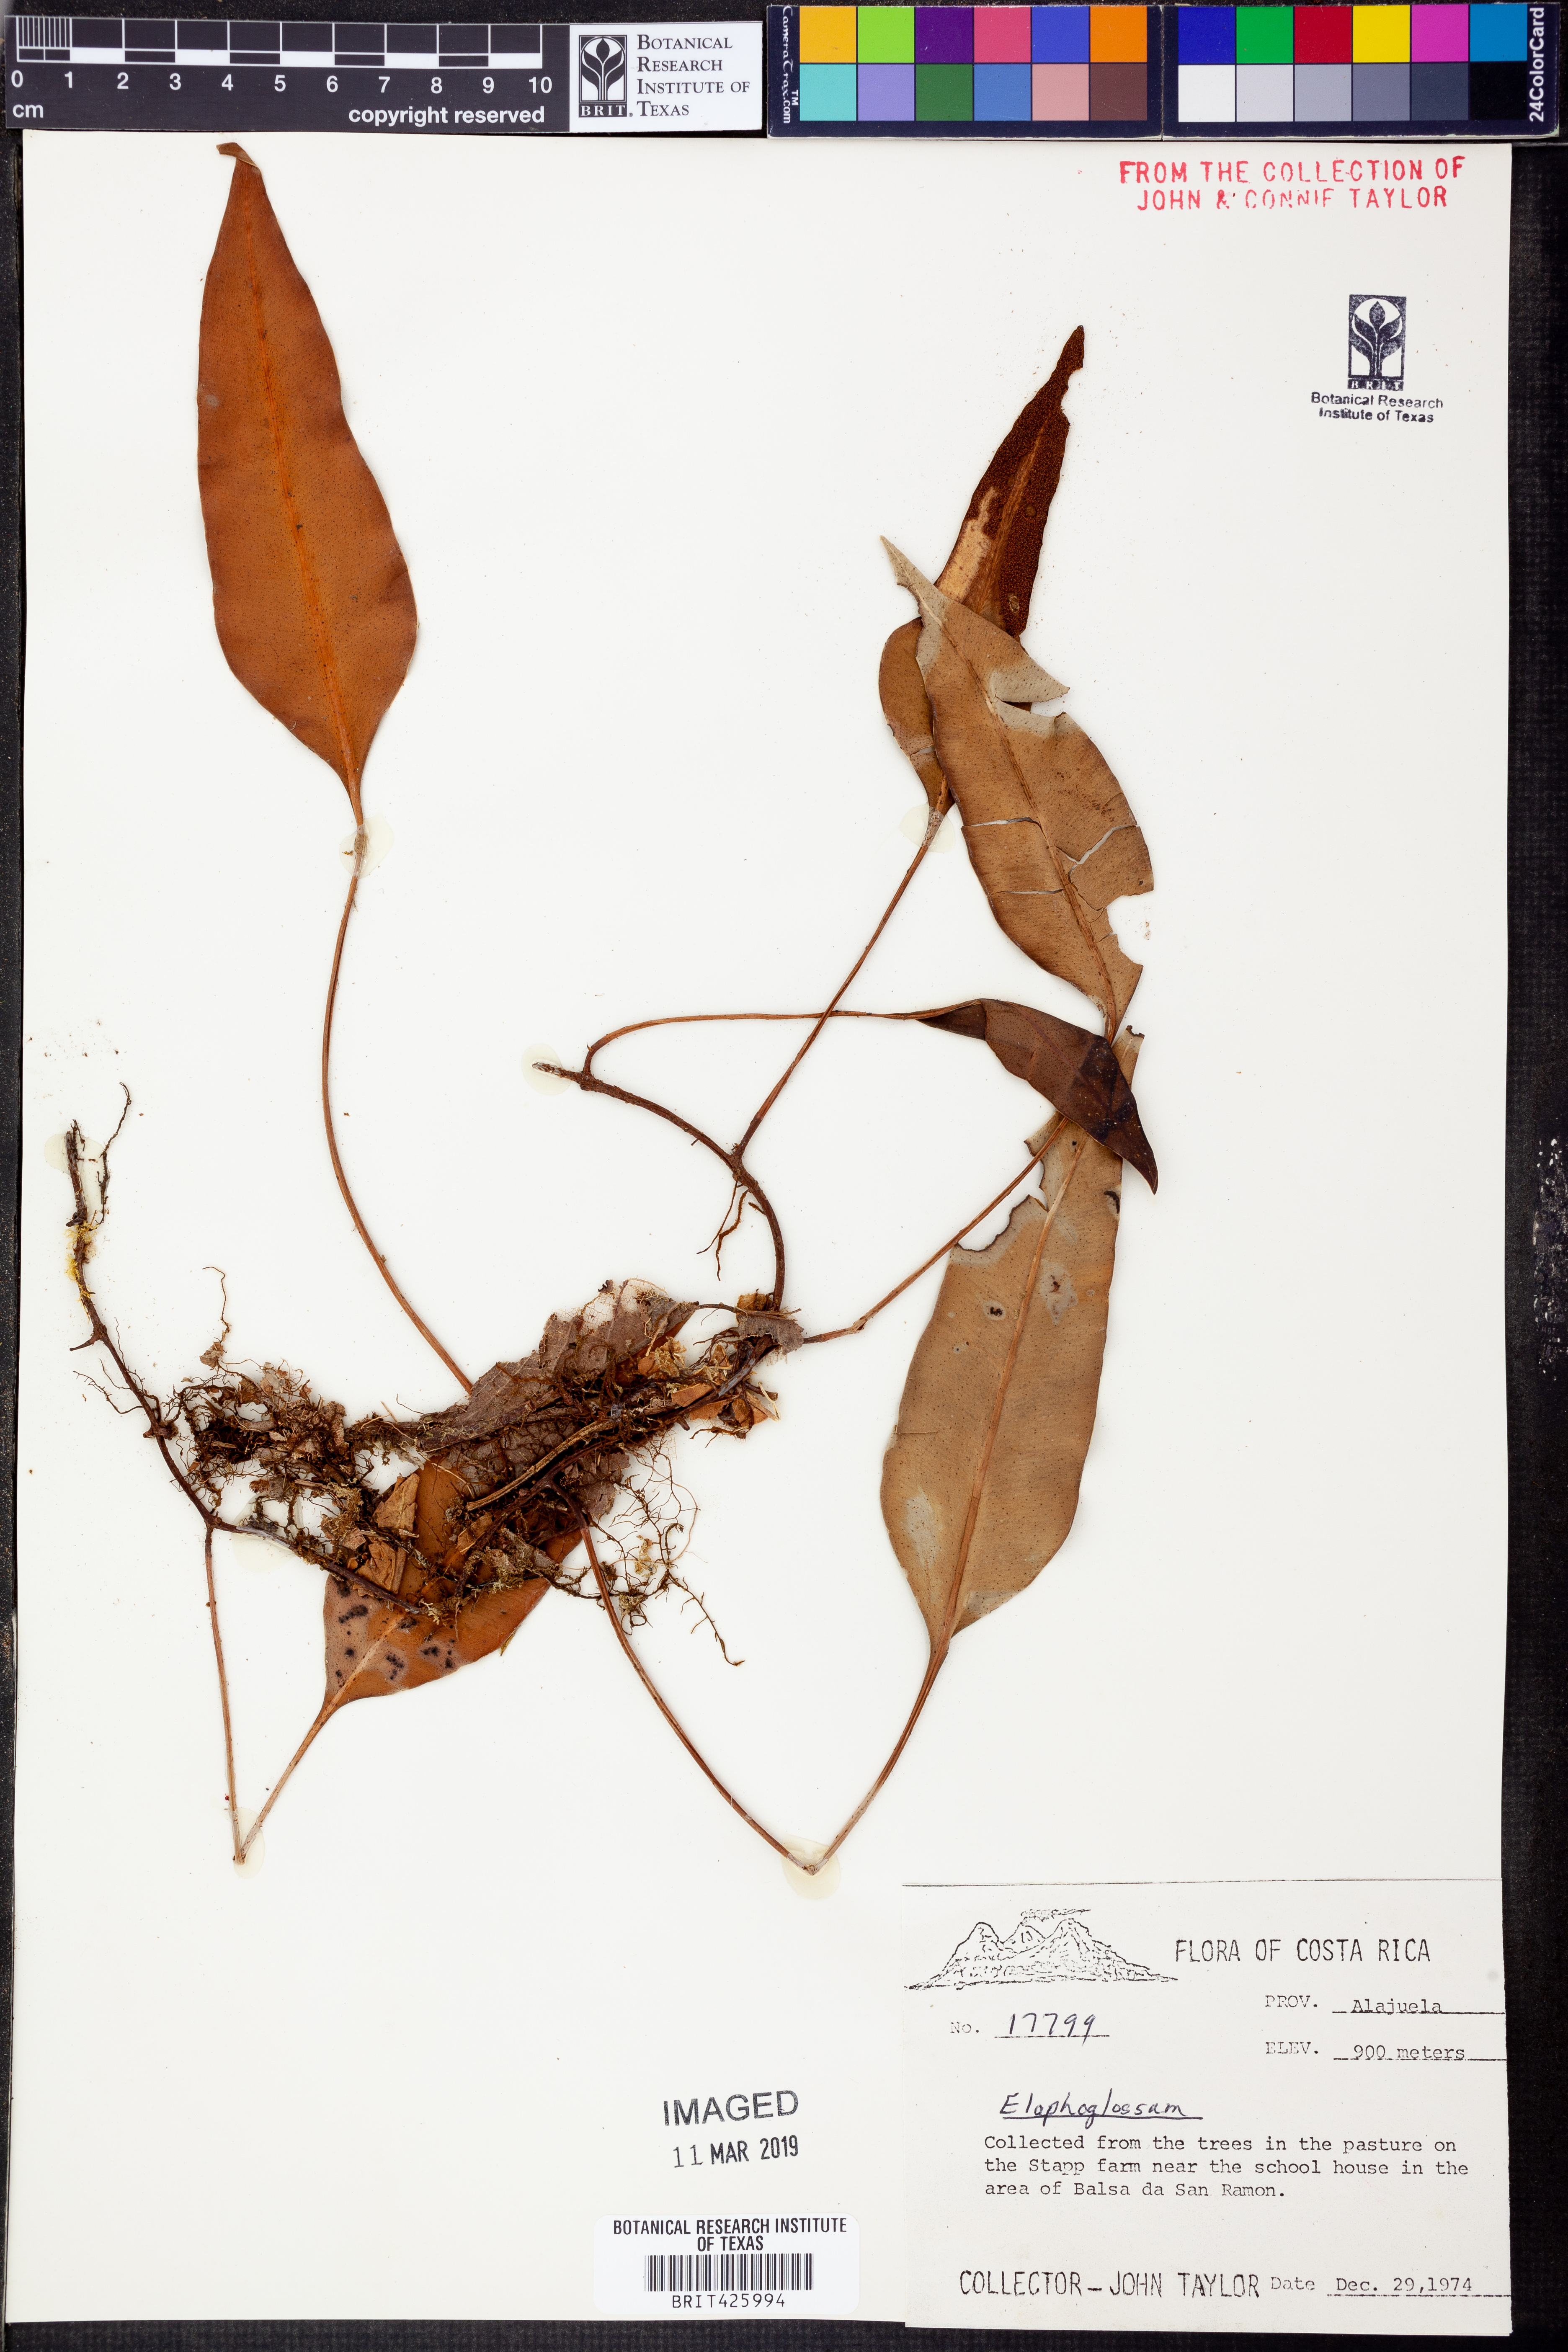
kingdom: Plantae
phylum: Tracheophyta
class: Polypodiopsida
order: Polypodiales
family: Dryopteridaceae
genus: Elaphoglossum
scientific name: Elaphoglossum
